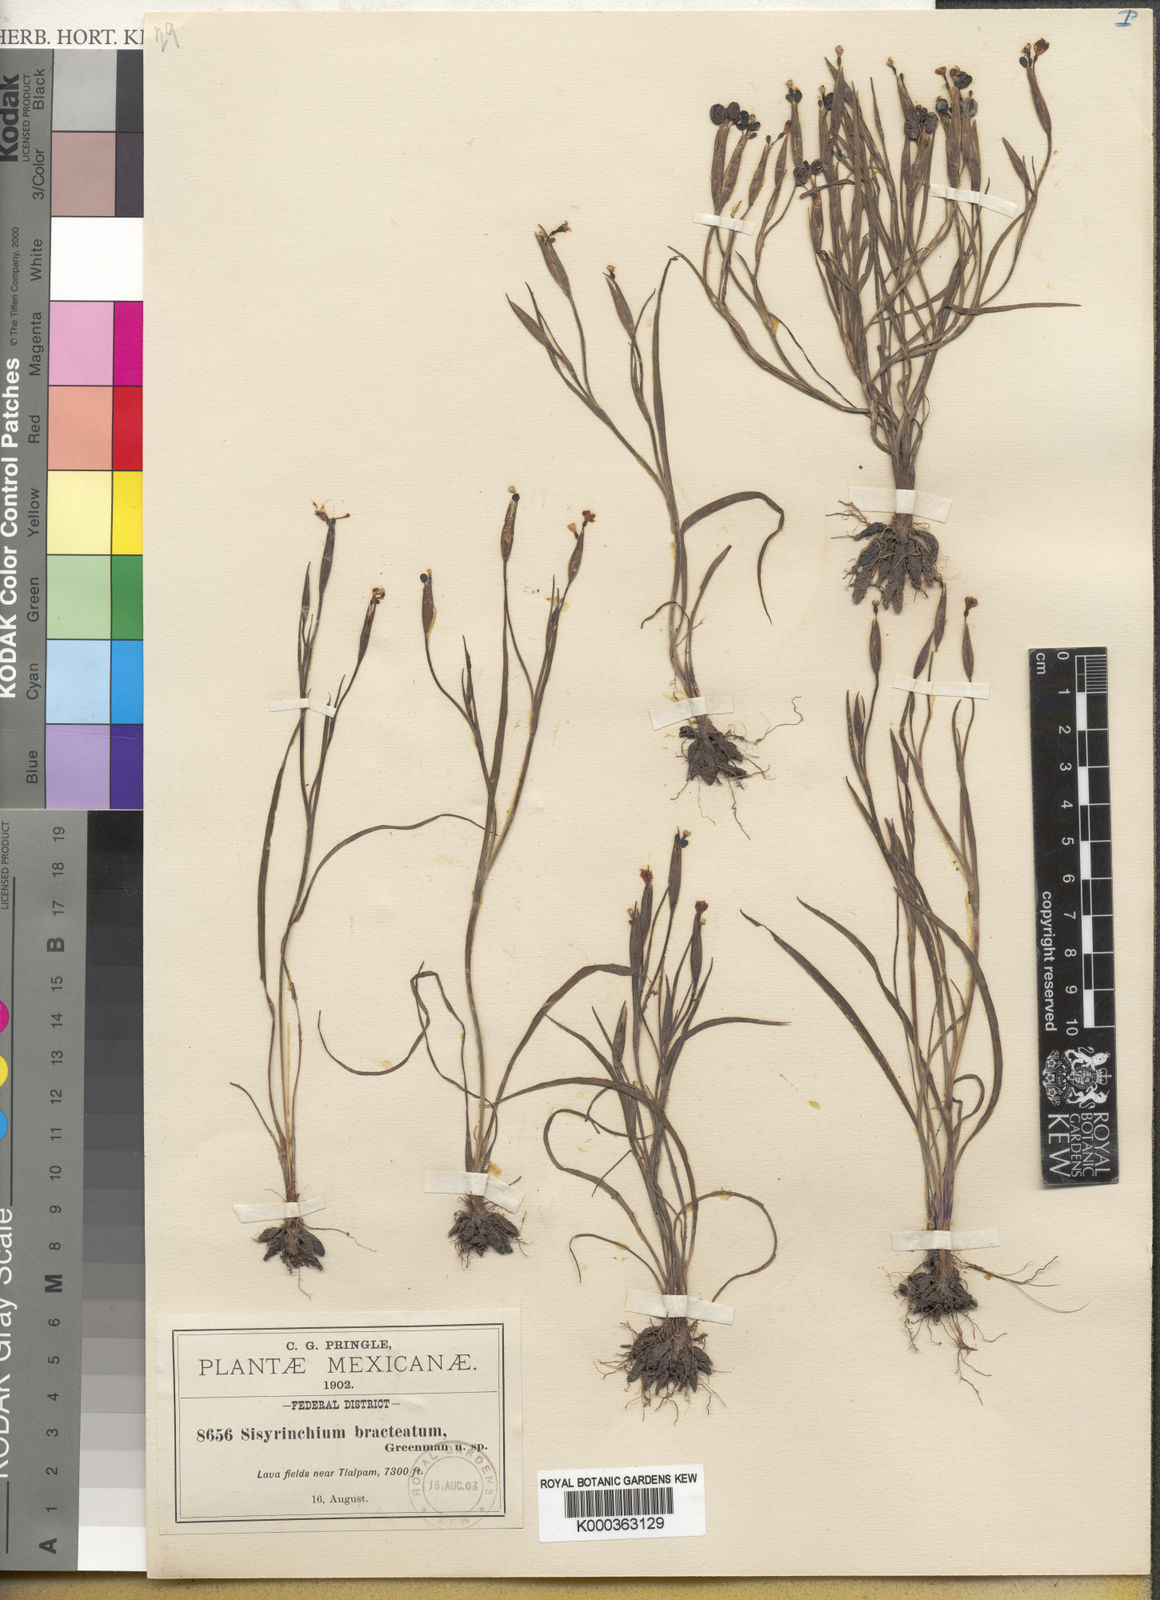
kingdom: Plantae
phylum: Tracheophyta
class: Liliopsida
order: Asparagales
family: Iridaceae
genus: Sisyrinchium
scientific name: Sisyrinchium tenuifolium
